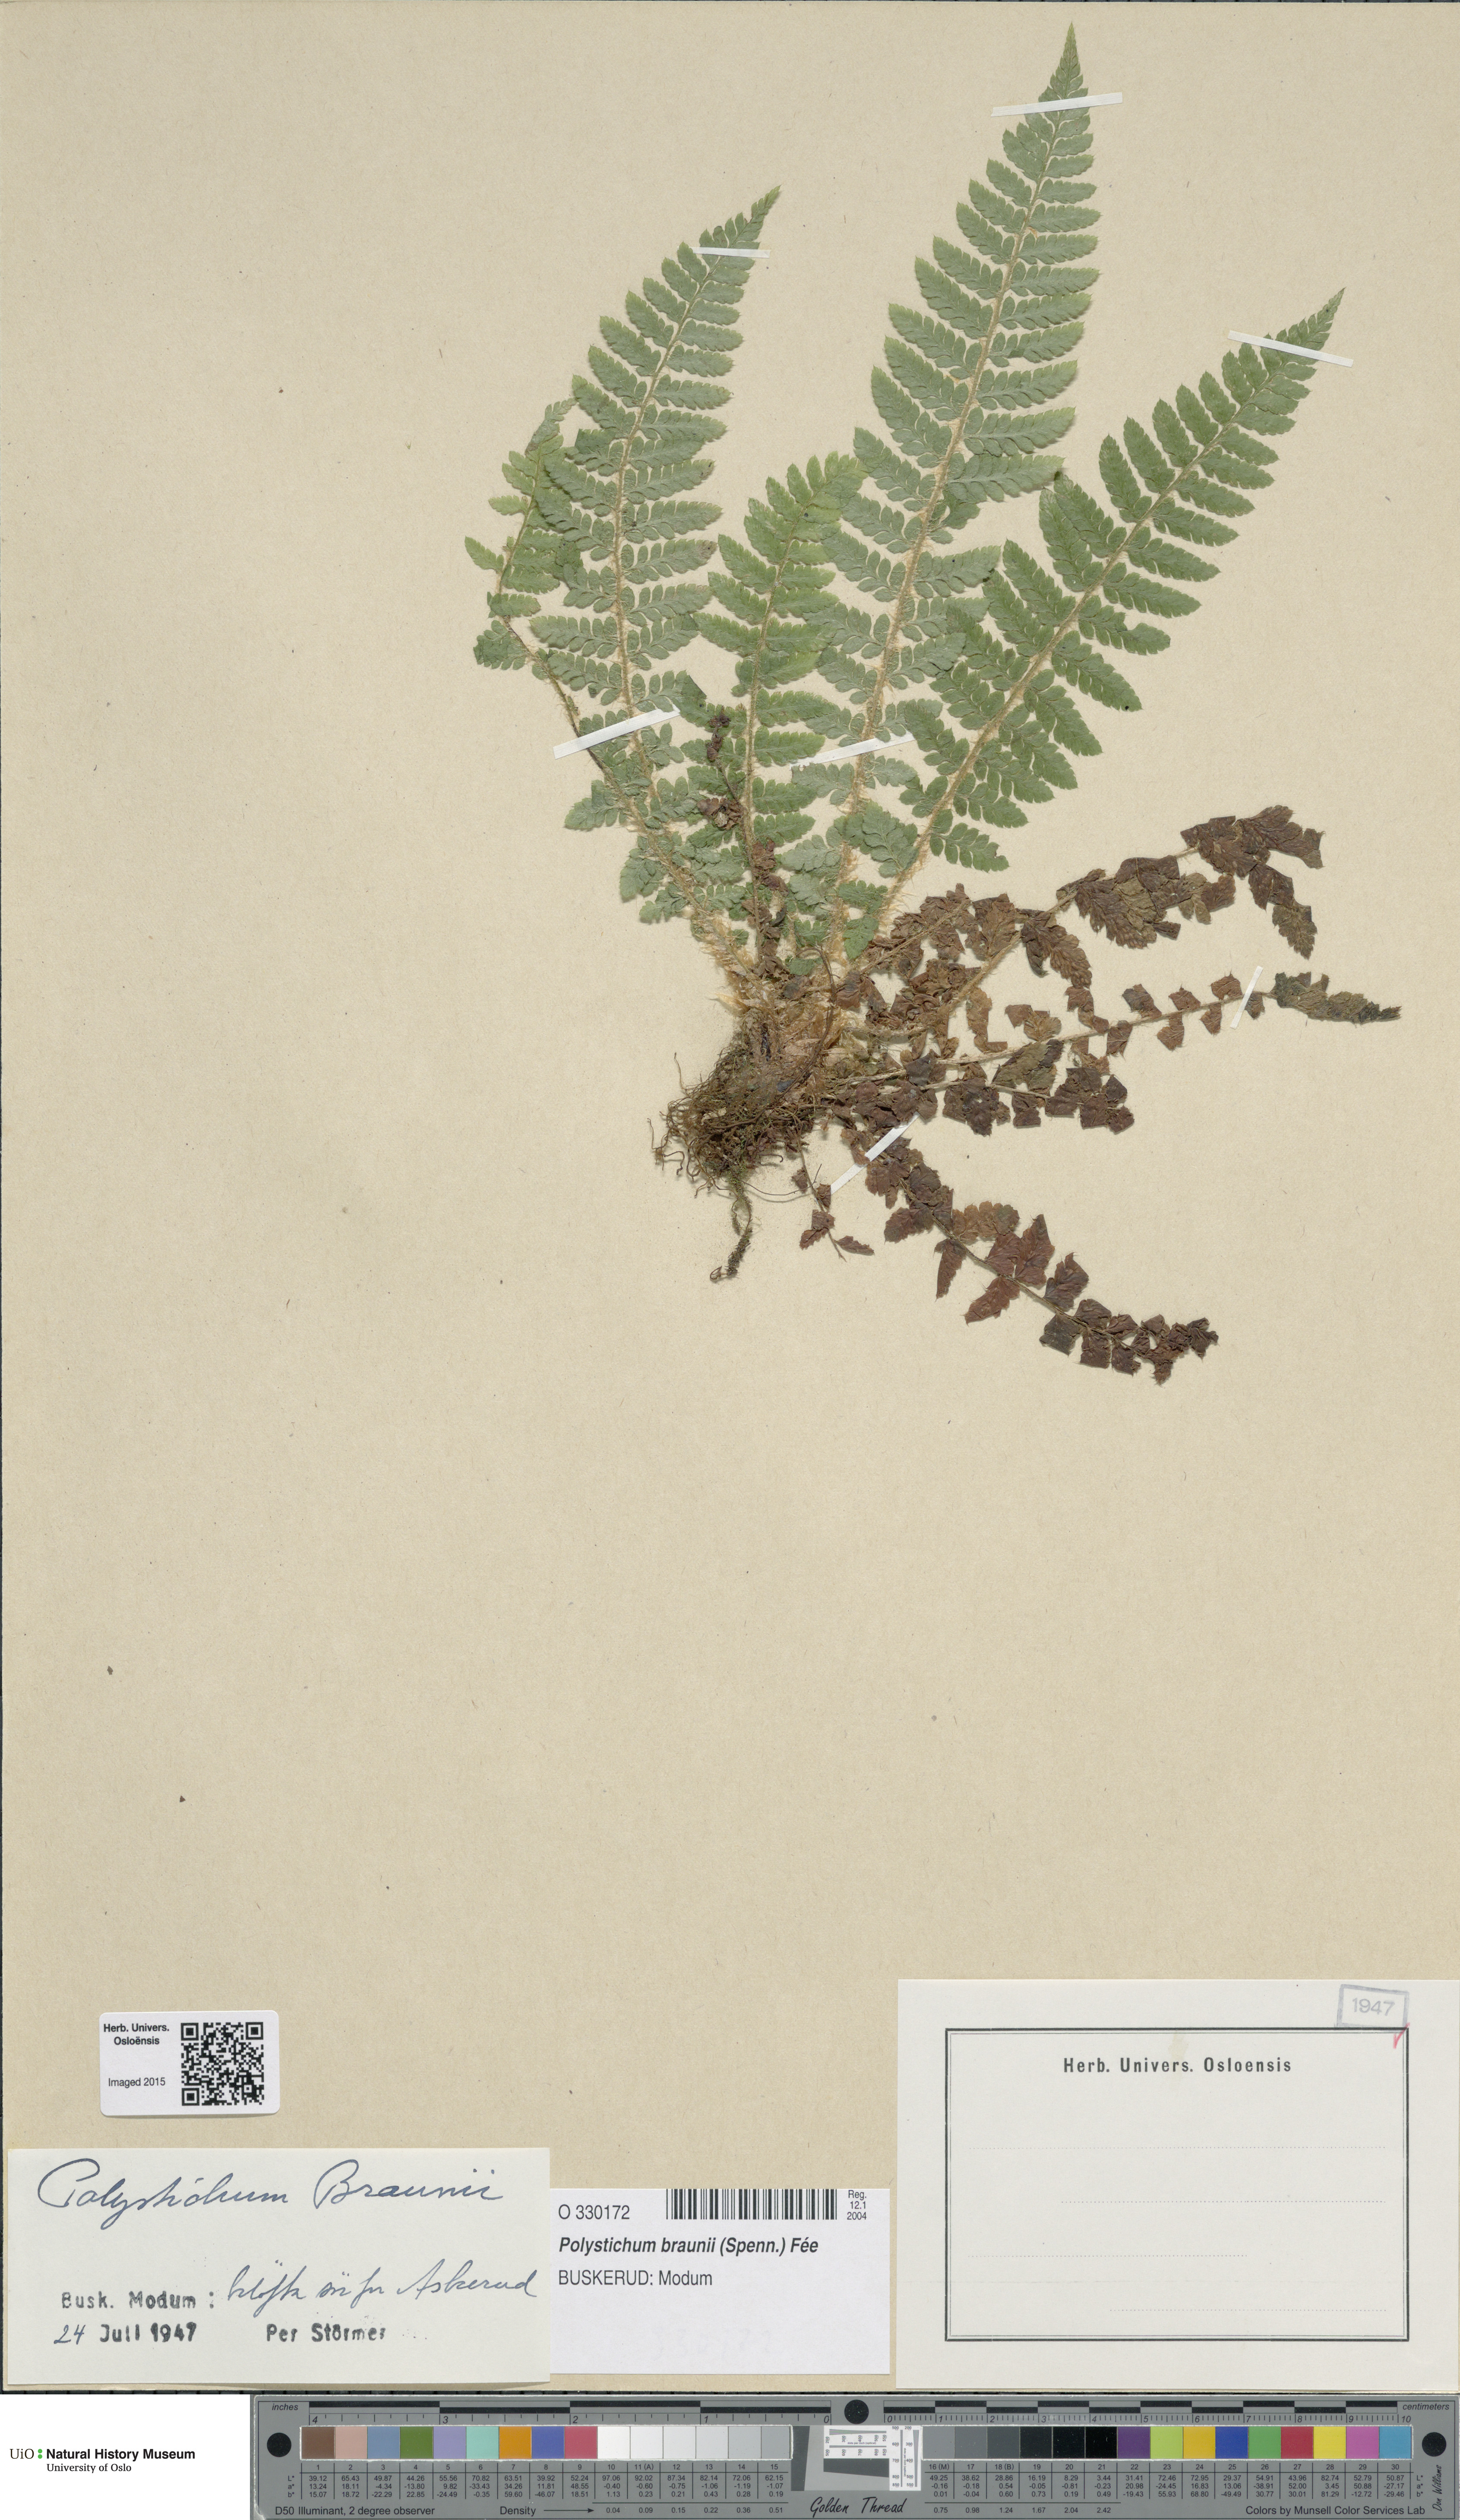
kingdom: Plantae
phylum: Tracheophyta
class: Polypodiopsida
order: Polypodiales
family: Dryopteridaceae
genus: Polystichum
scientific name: Polystichum braunii
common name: Braun's holly fern
